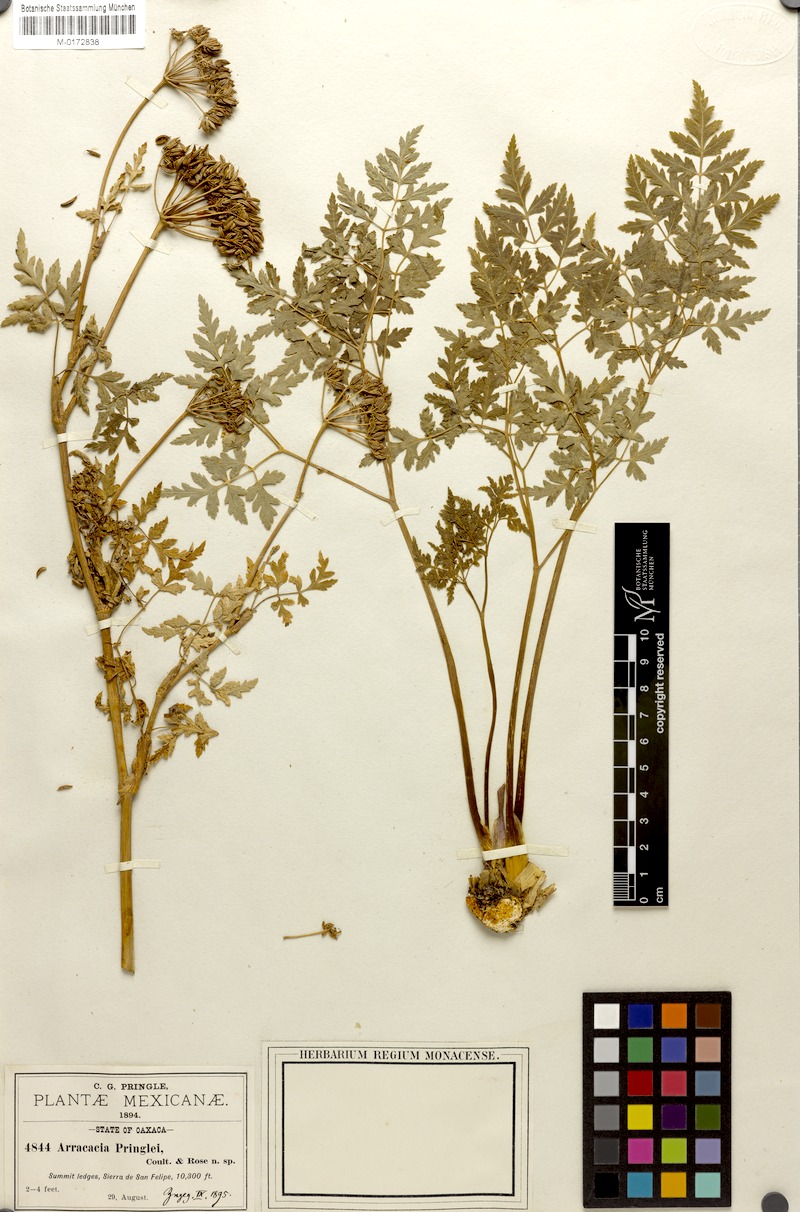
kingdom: Plantae
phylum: Tracheophyta
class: Magnoliopsida
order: Apiales
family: Apiaceae
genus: Arracacia
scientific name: Arracacia pringlei
